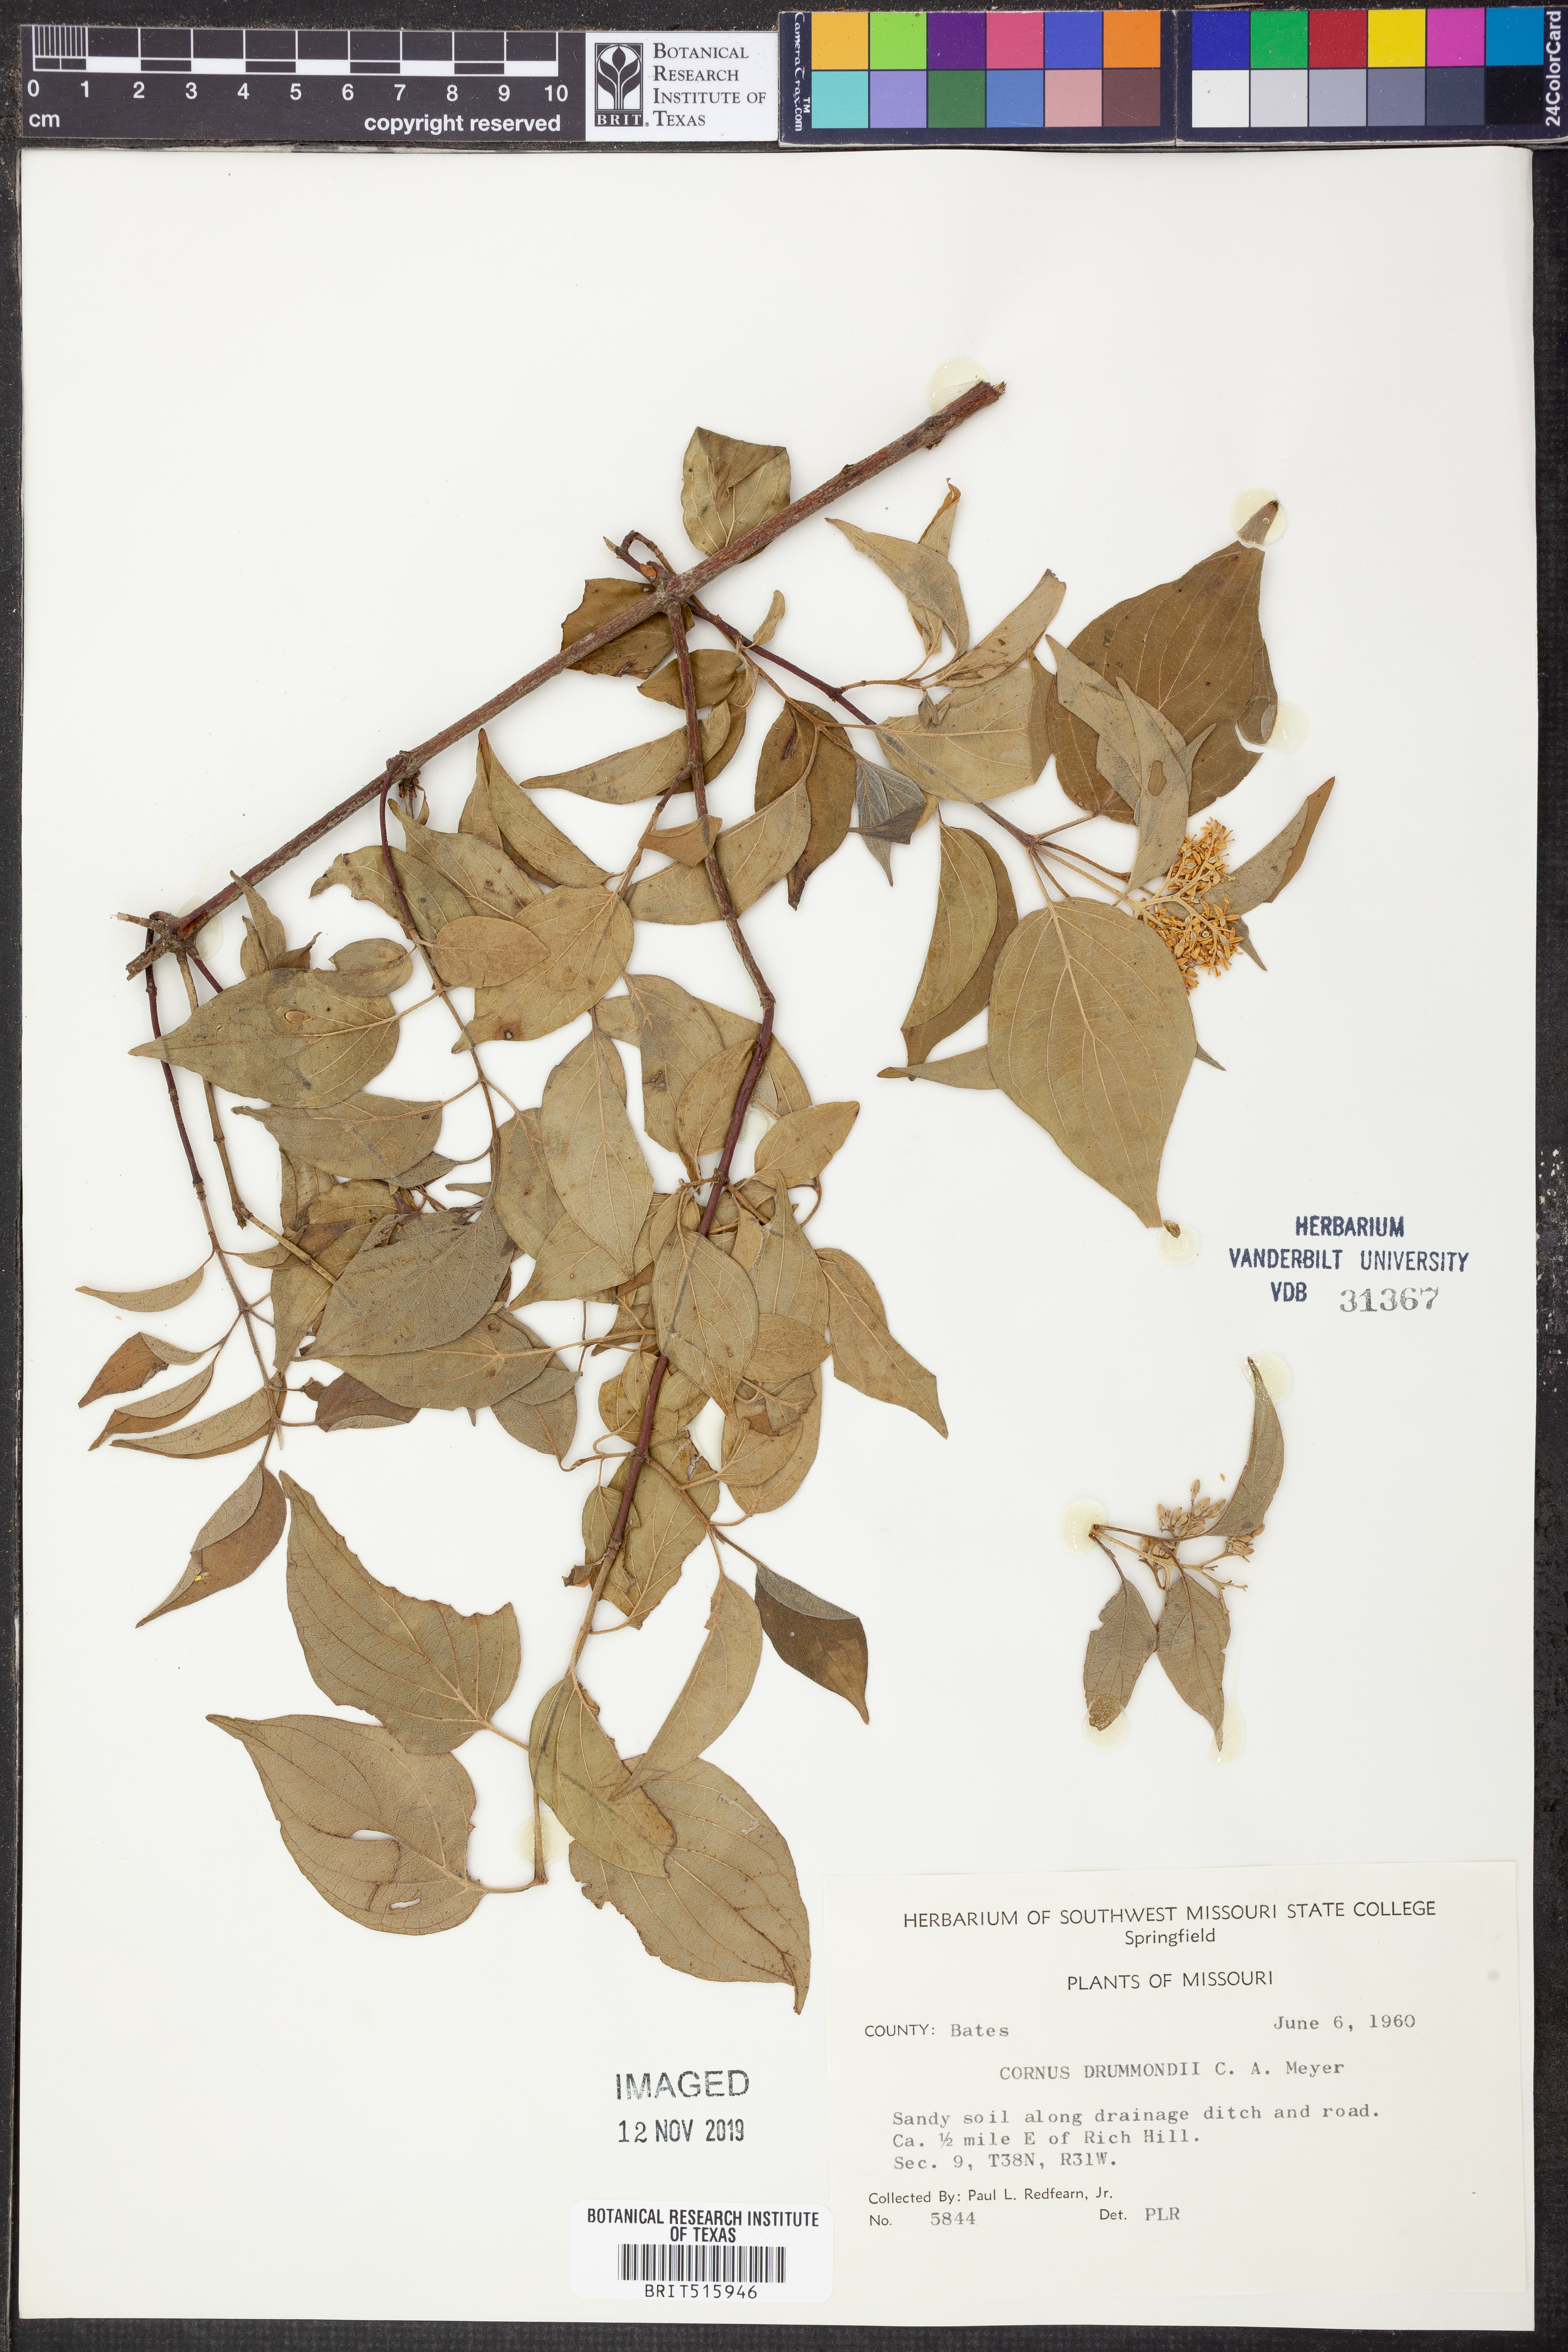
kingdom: Plantae
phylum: Tracheophyta
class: Magnoliopsida
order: Cornales
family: Cornaceae
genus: Cornus
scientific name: Cornus drummondii
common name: Rough-leaf dogwood
